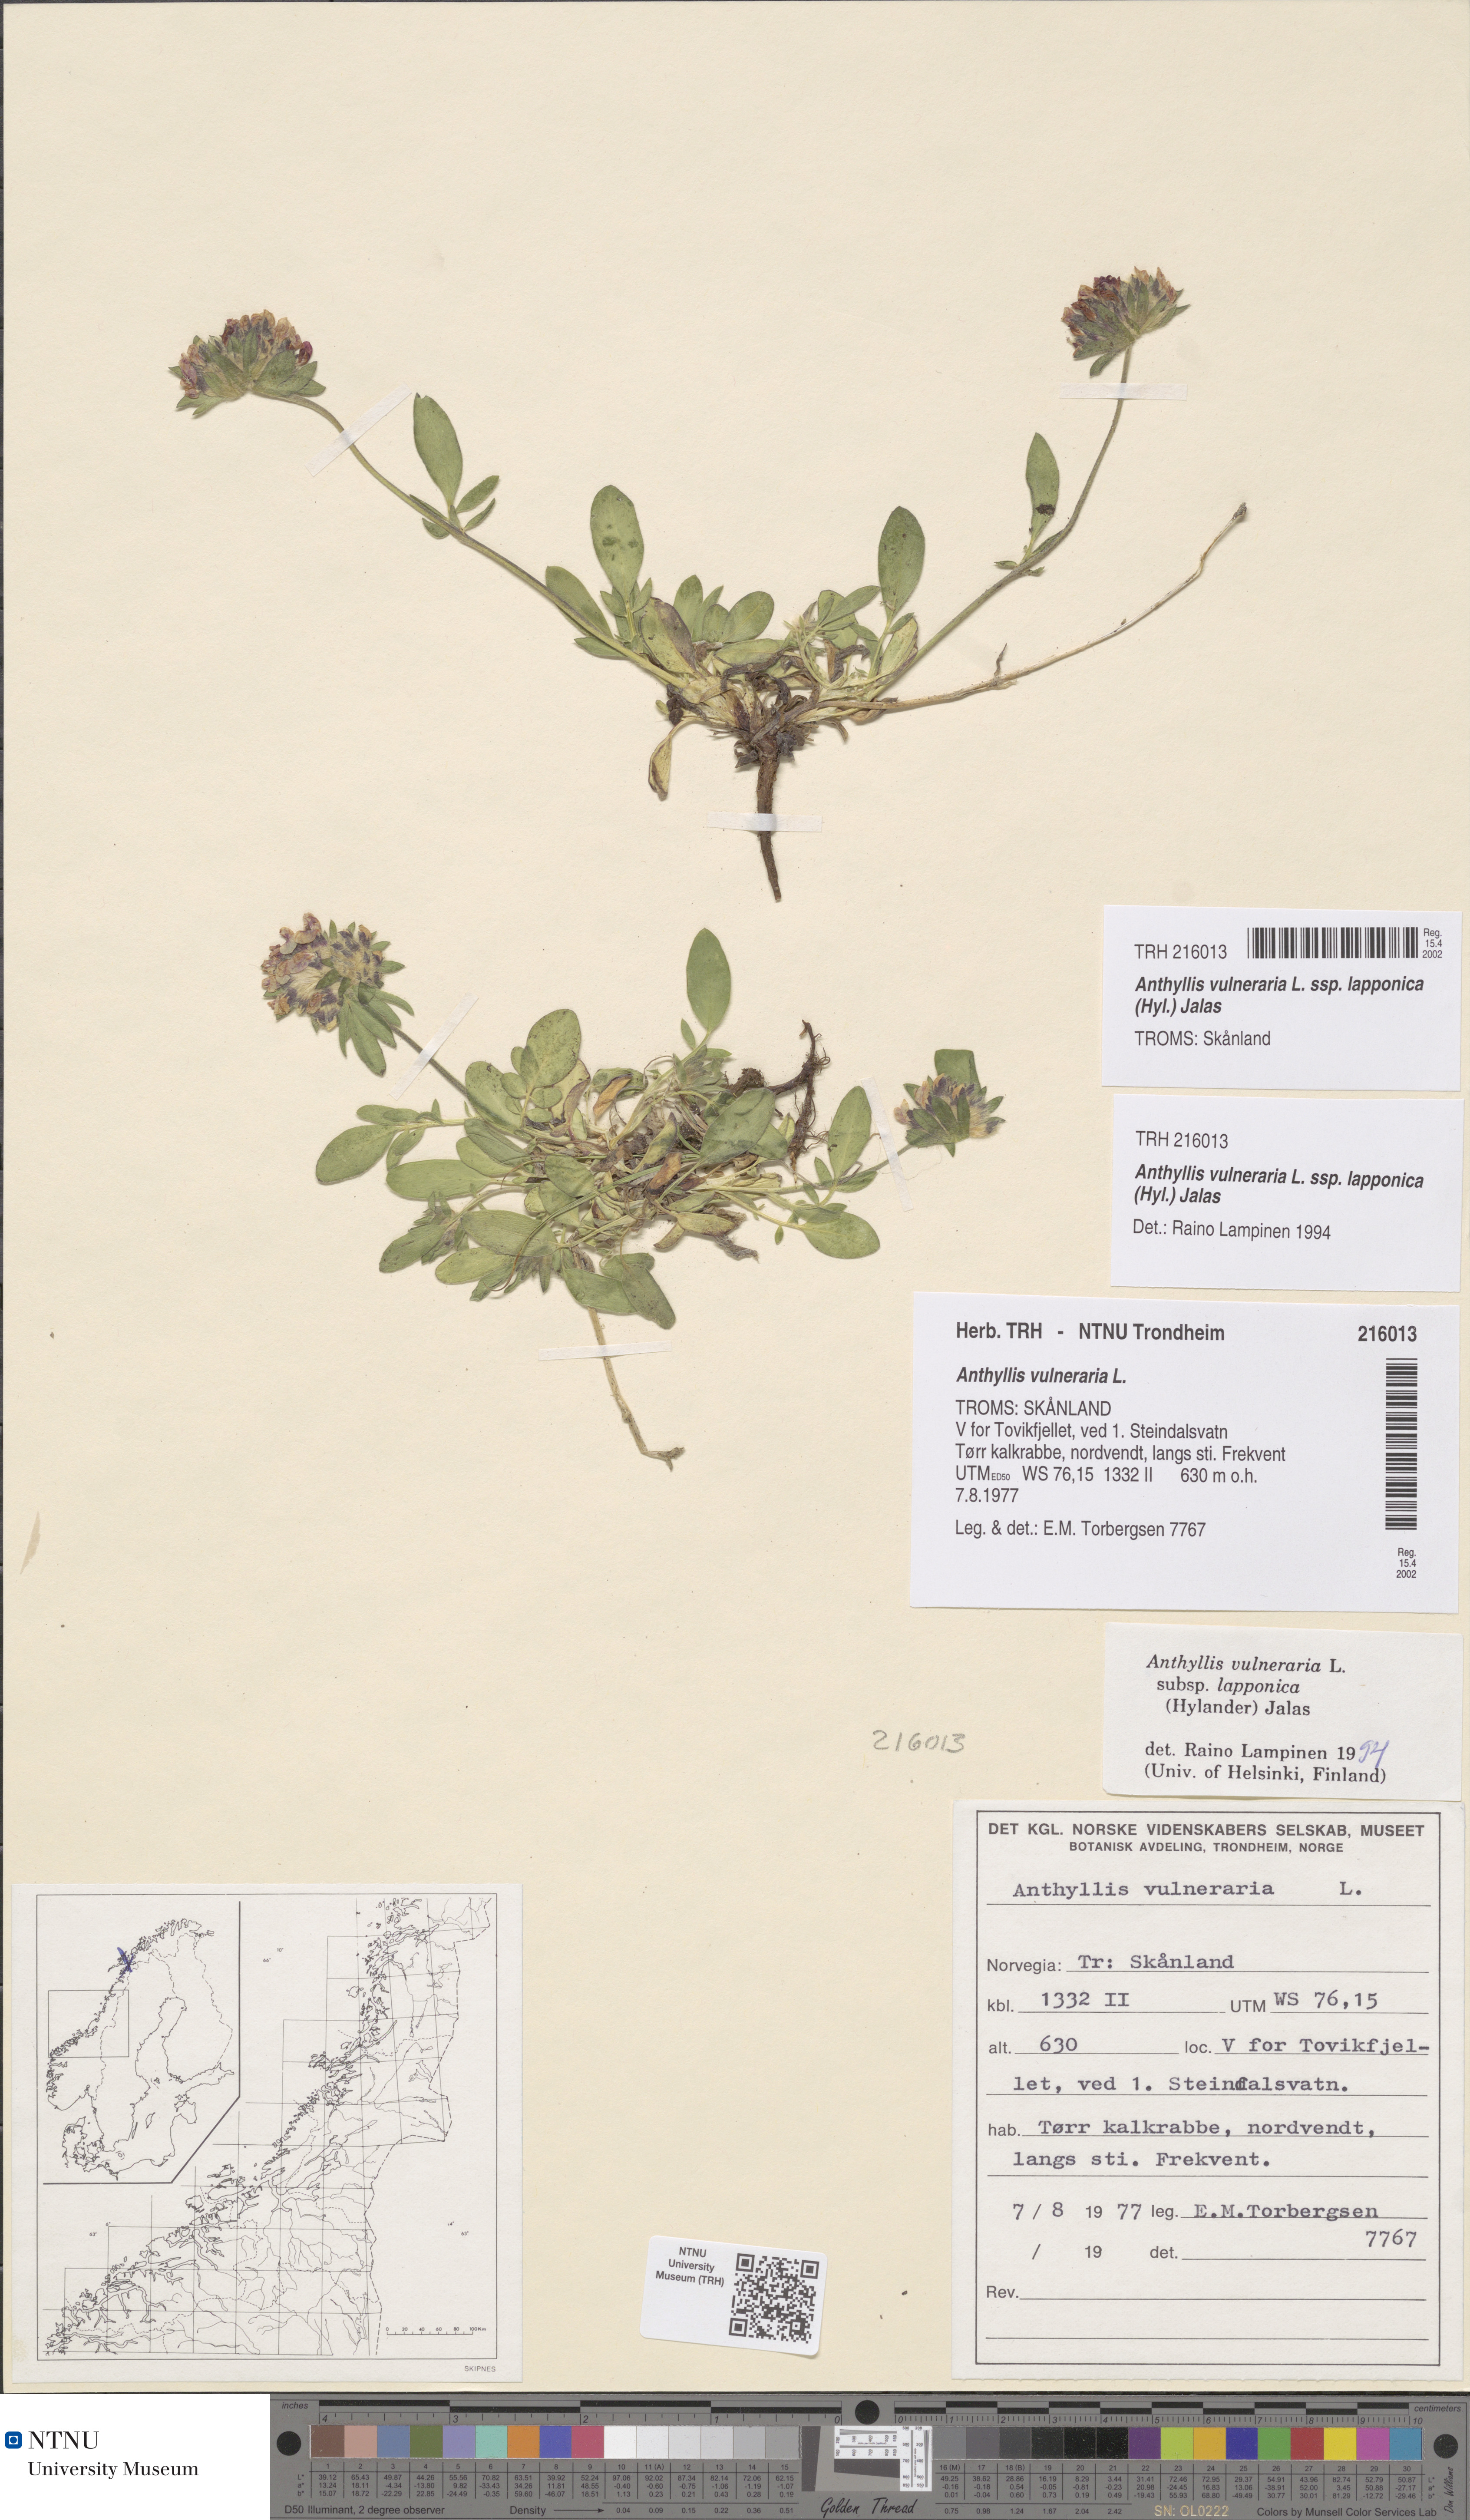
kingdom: Plantae
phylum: Tracheophyta
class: Magnoliopsida
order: Fabales
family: Fabaceae
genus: Anthyllis
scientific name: Anthyllis vulneraria
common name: Kidney vetch
